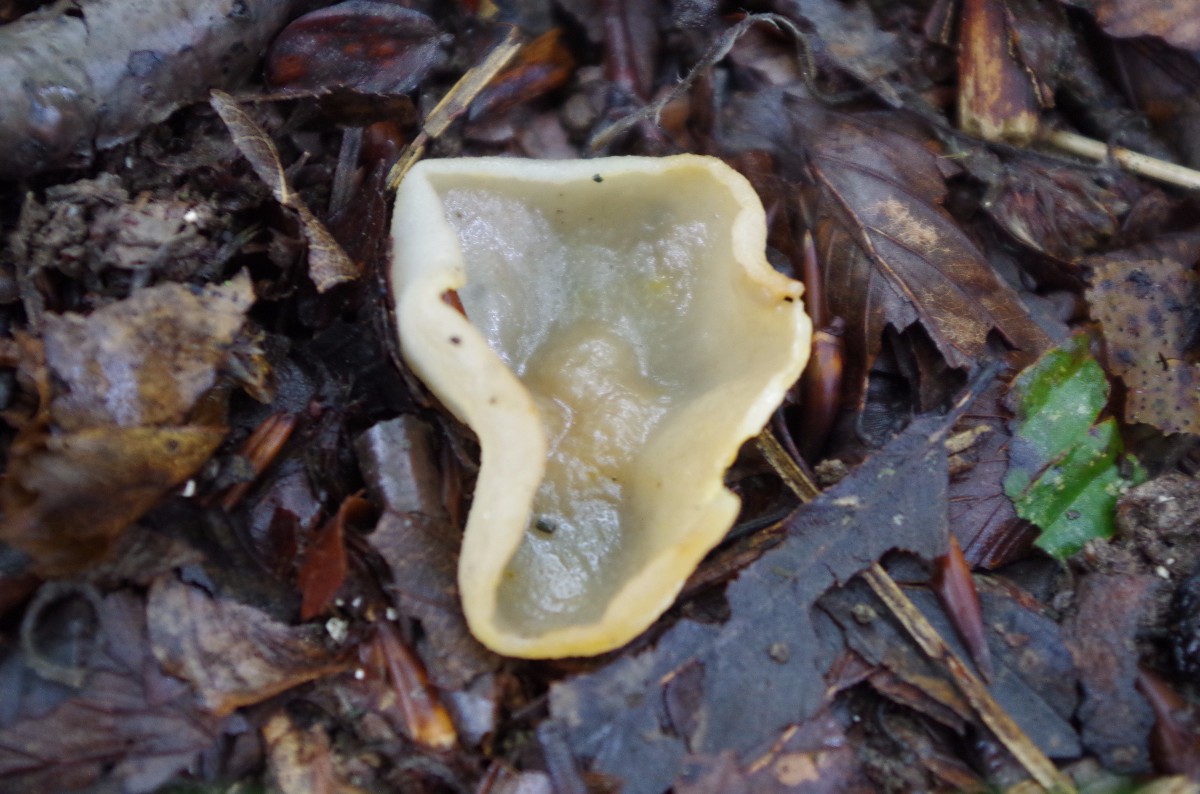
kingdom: Fungi
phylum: Ascomycota
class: Pezizomycetes
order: Pezizales
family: Pezizaceae
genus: Paragalactinia
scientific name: Paragalactinia succosa
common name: gulmælket bægersvamp
